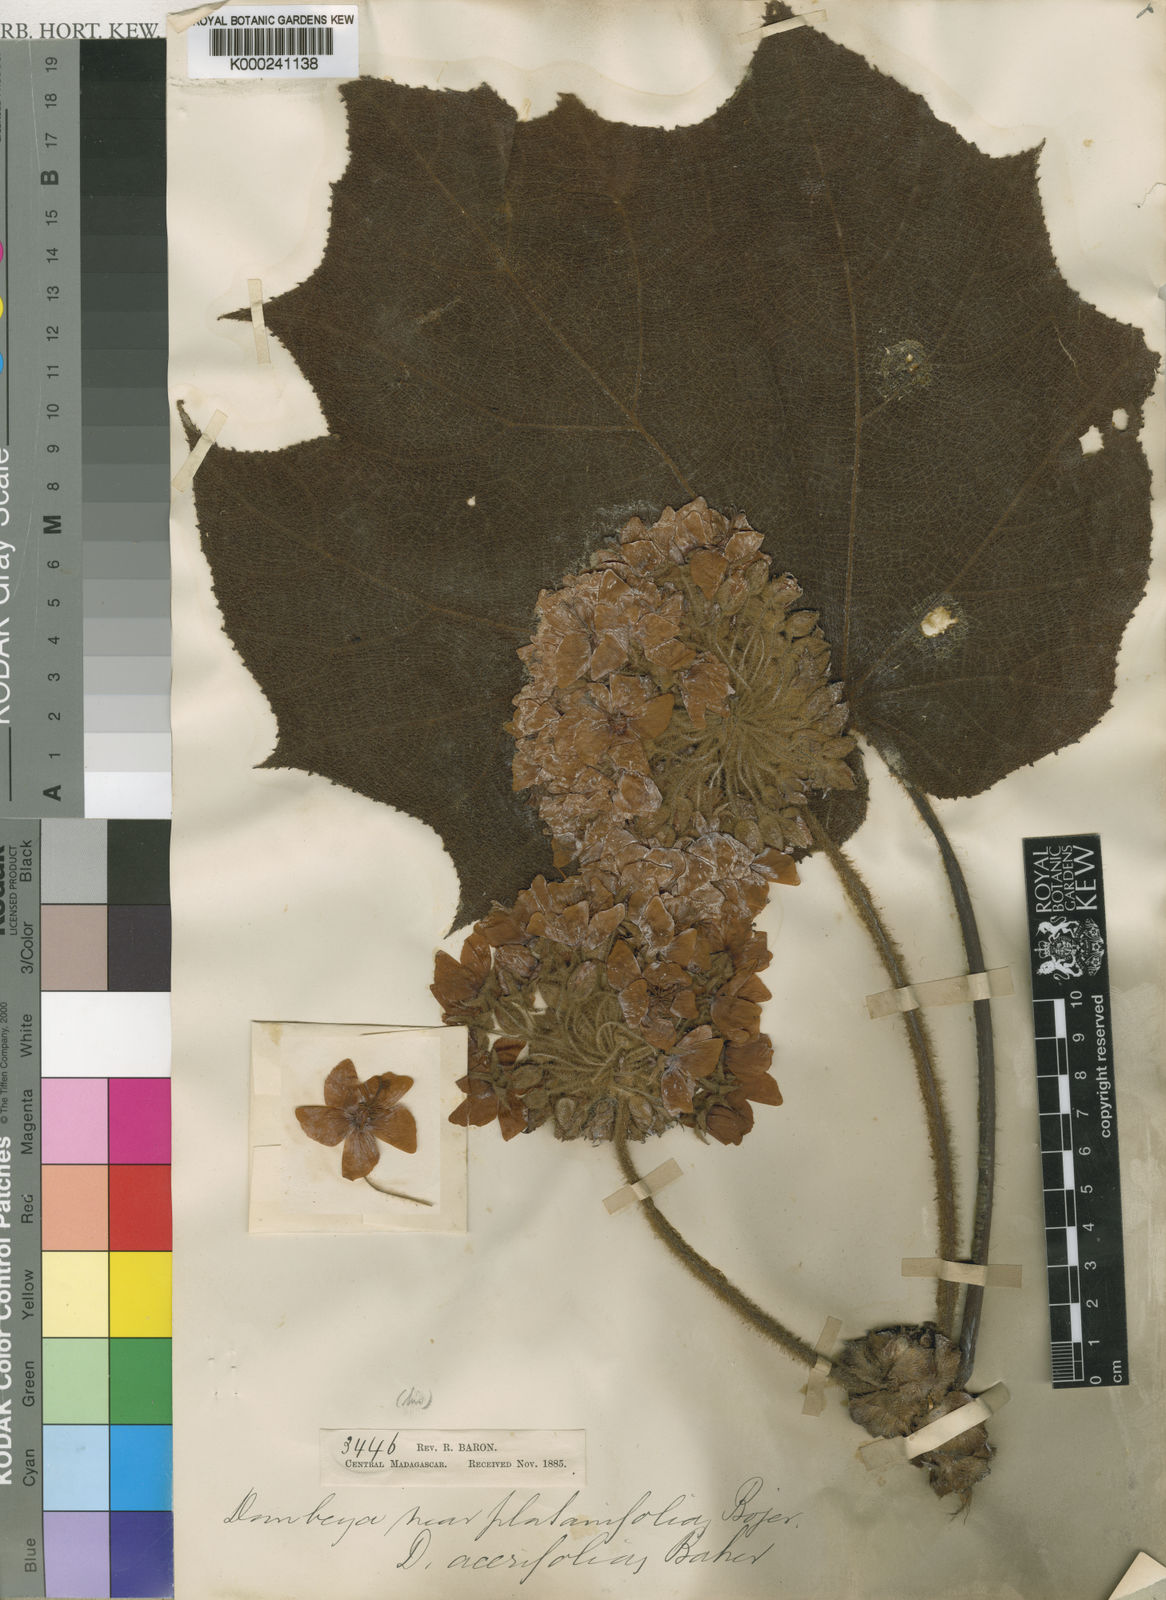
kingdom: Plantae
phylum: Tracheophyta
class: Magnoliopsida
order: Malvales
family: Malvaceae
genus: Dombeya
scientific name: Dombeya acutangula
